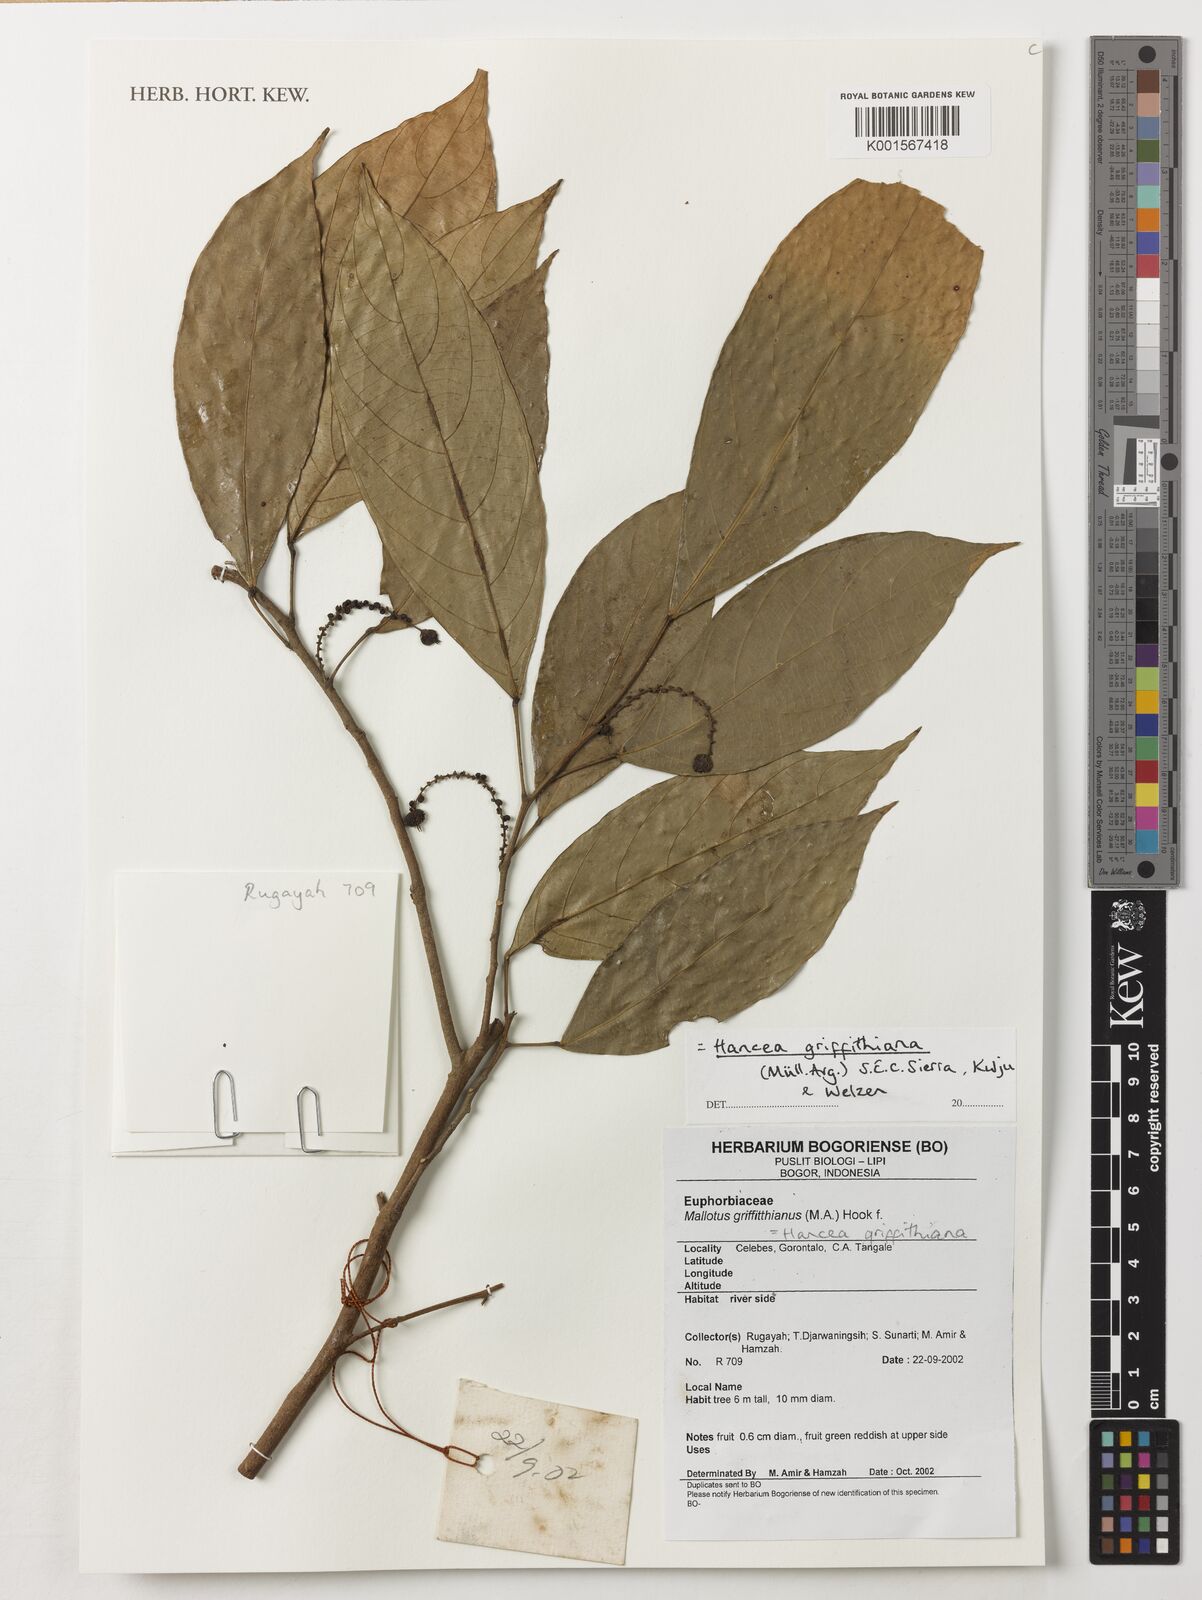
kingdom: Plantae
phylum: Tracheophyta
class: Magnoliopsida
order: Malpighiales
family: Euphorbiaceae
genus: Hancea
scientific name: Hancea griffithiana
